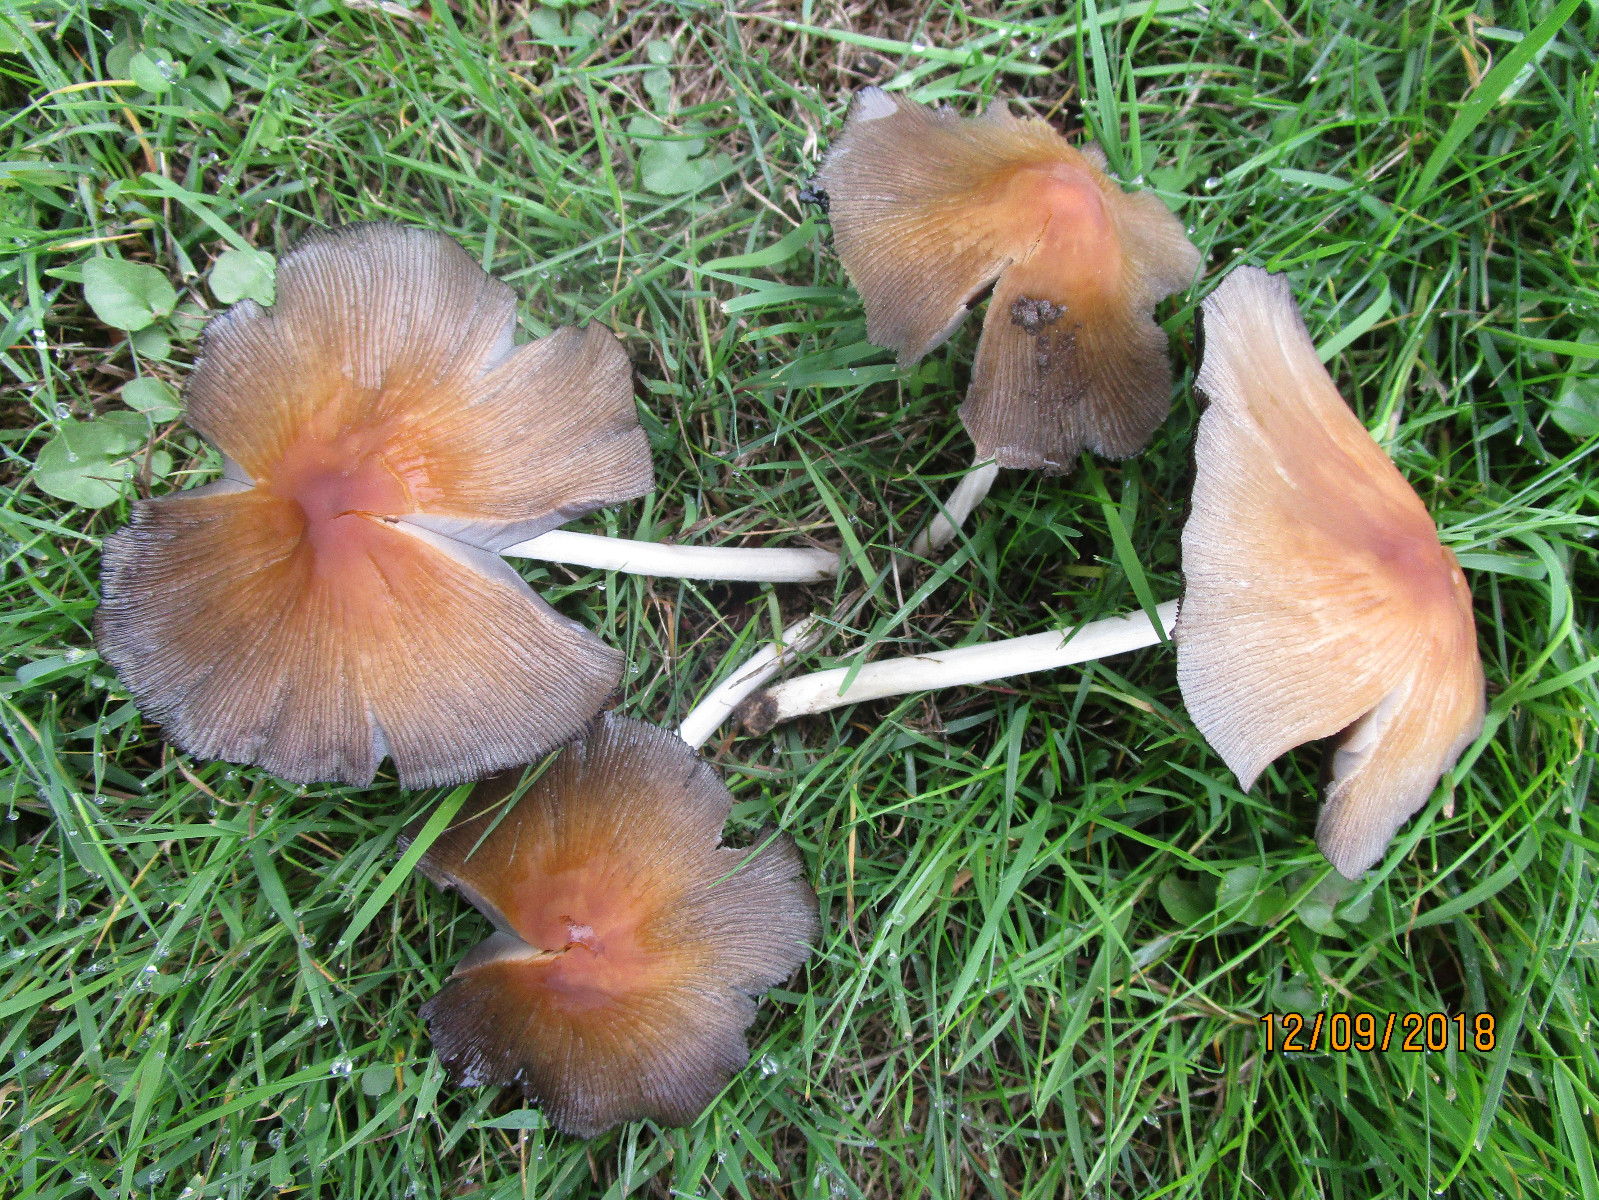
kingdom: Fungi
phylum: Basidiomycota
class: Agaricomycetes
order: Agaricales
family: Psathyrellaceae
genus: Coprinellus
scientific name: Coprinellus micaceus
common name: glimmer-blækhat
